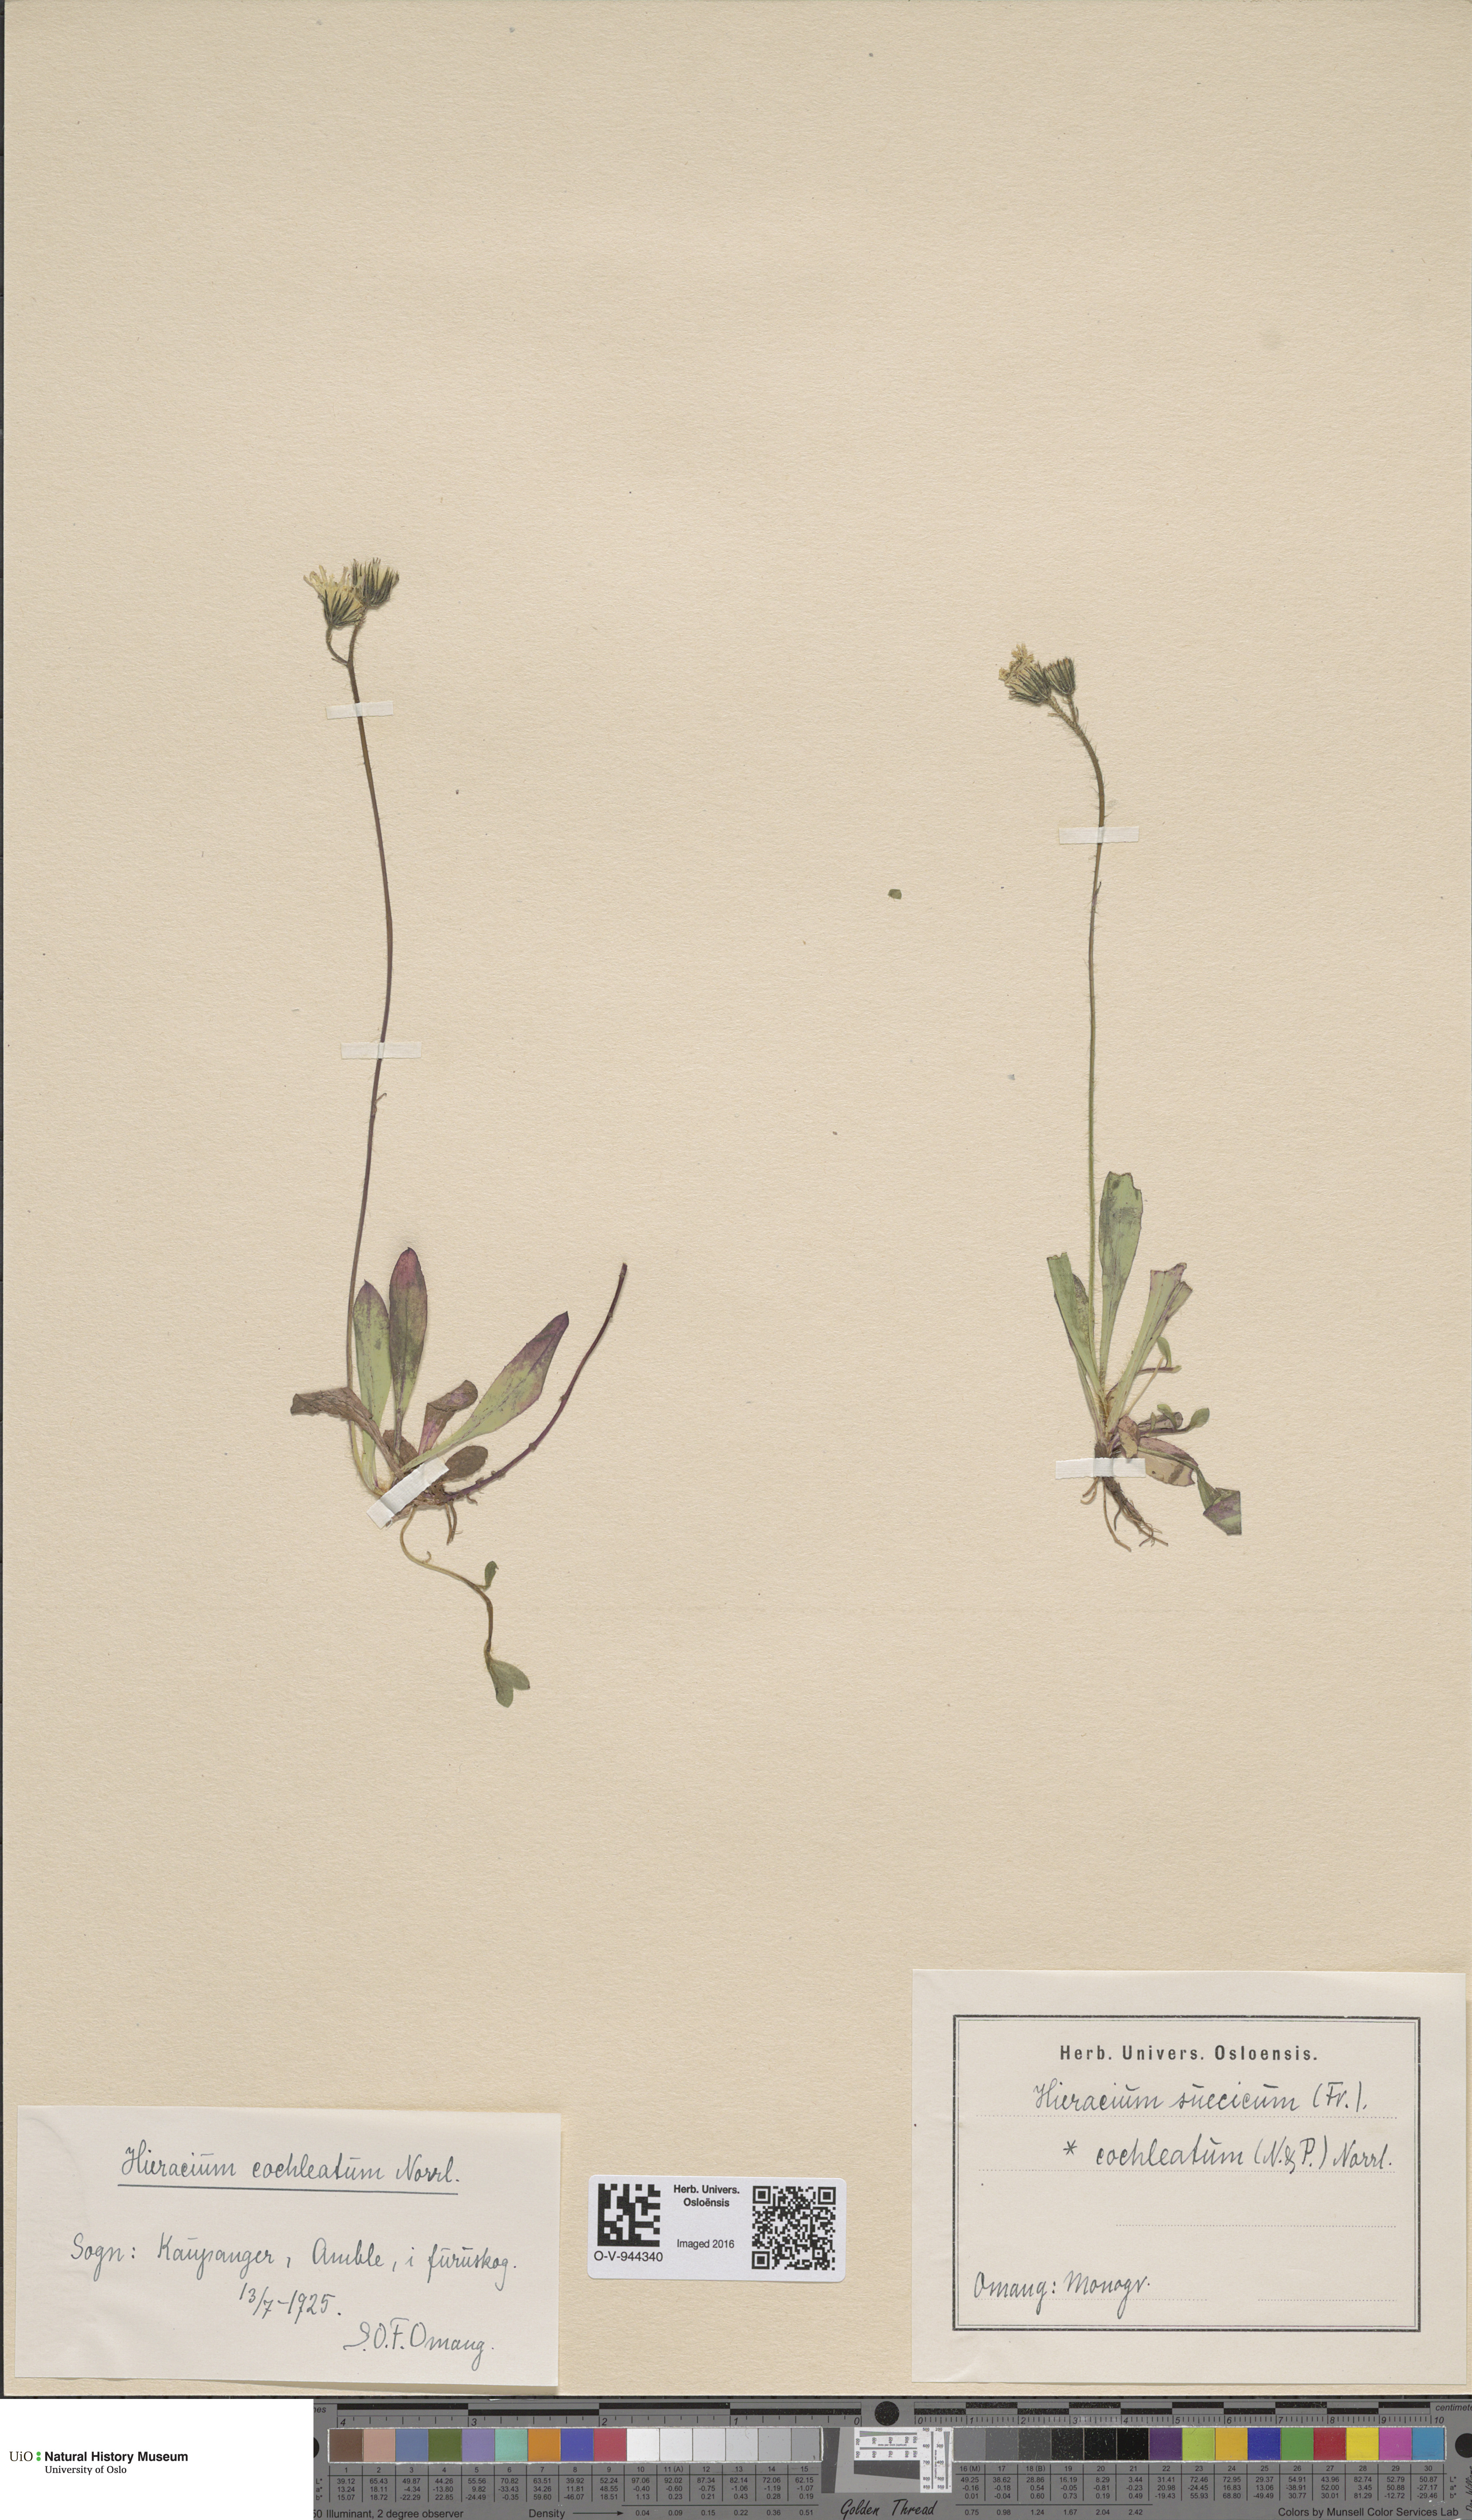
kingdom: Plantae
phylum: Tracheophyta
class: Magnoliopsida
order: Asterales
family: Asteraceae
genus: Pilosella
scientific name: Pilosella dubia
